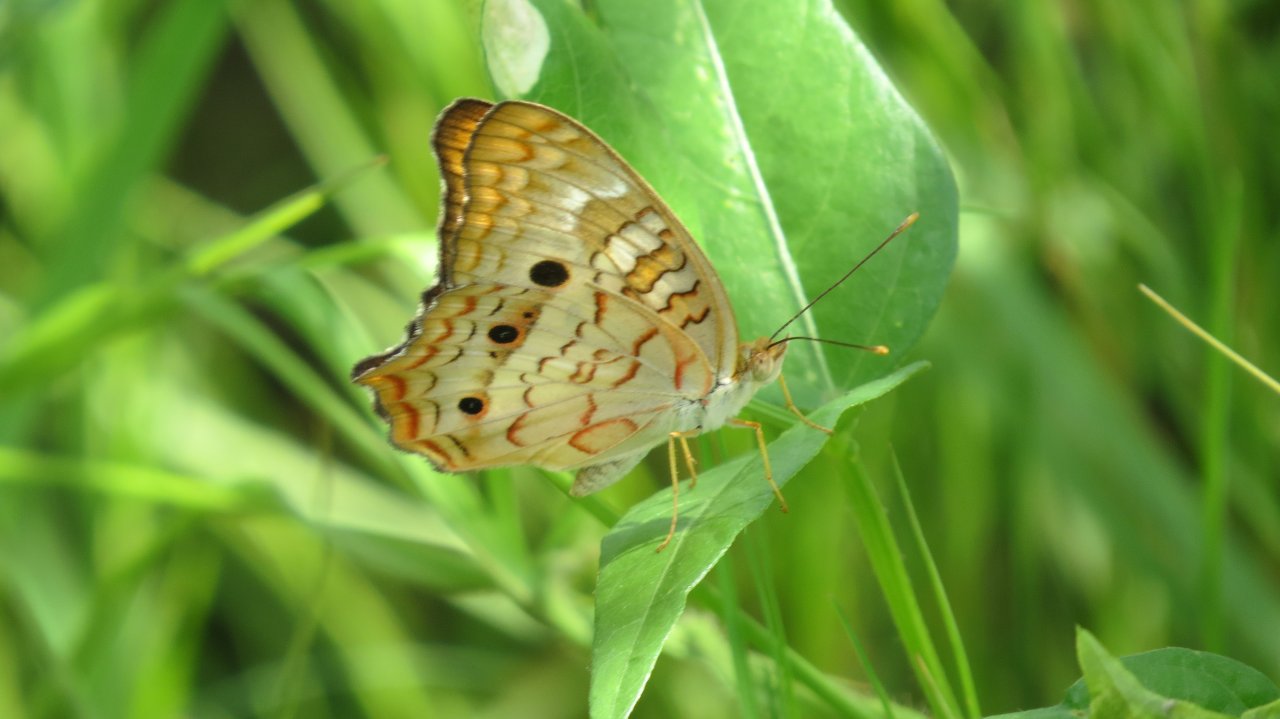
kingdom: Animalia
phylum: Arthropoda
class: Insecta
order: Lepidoptera
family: Nymphalidae
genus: Anartia
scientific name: Anartia jatrophae
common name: White Peacock
